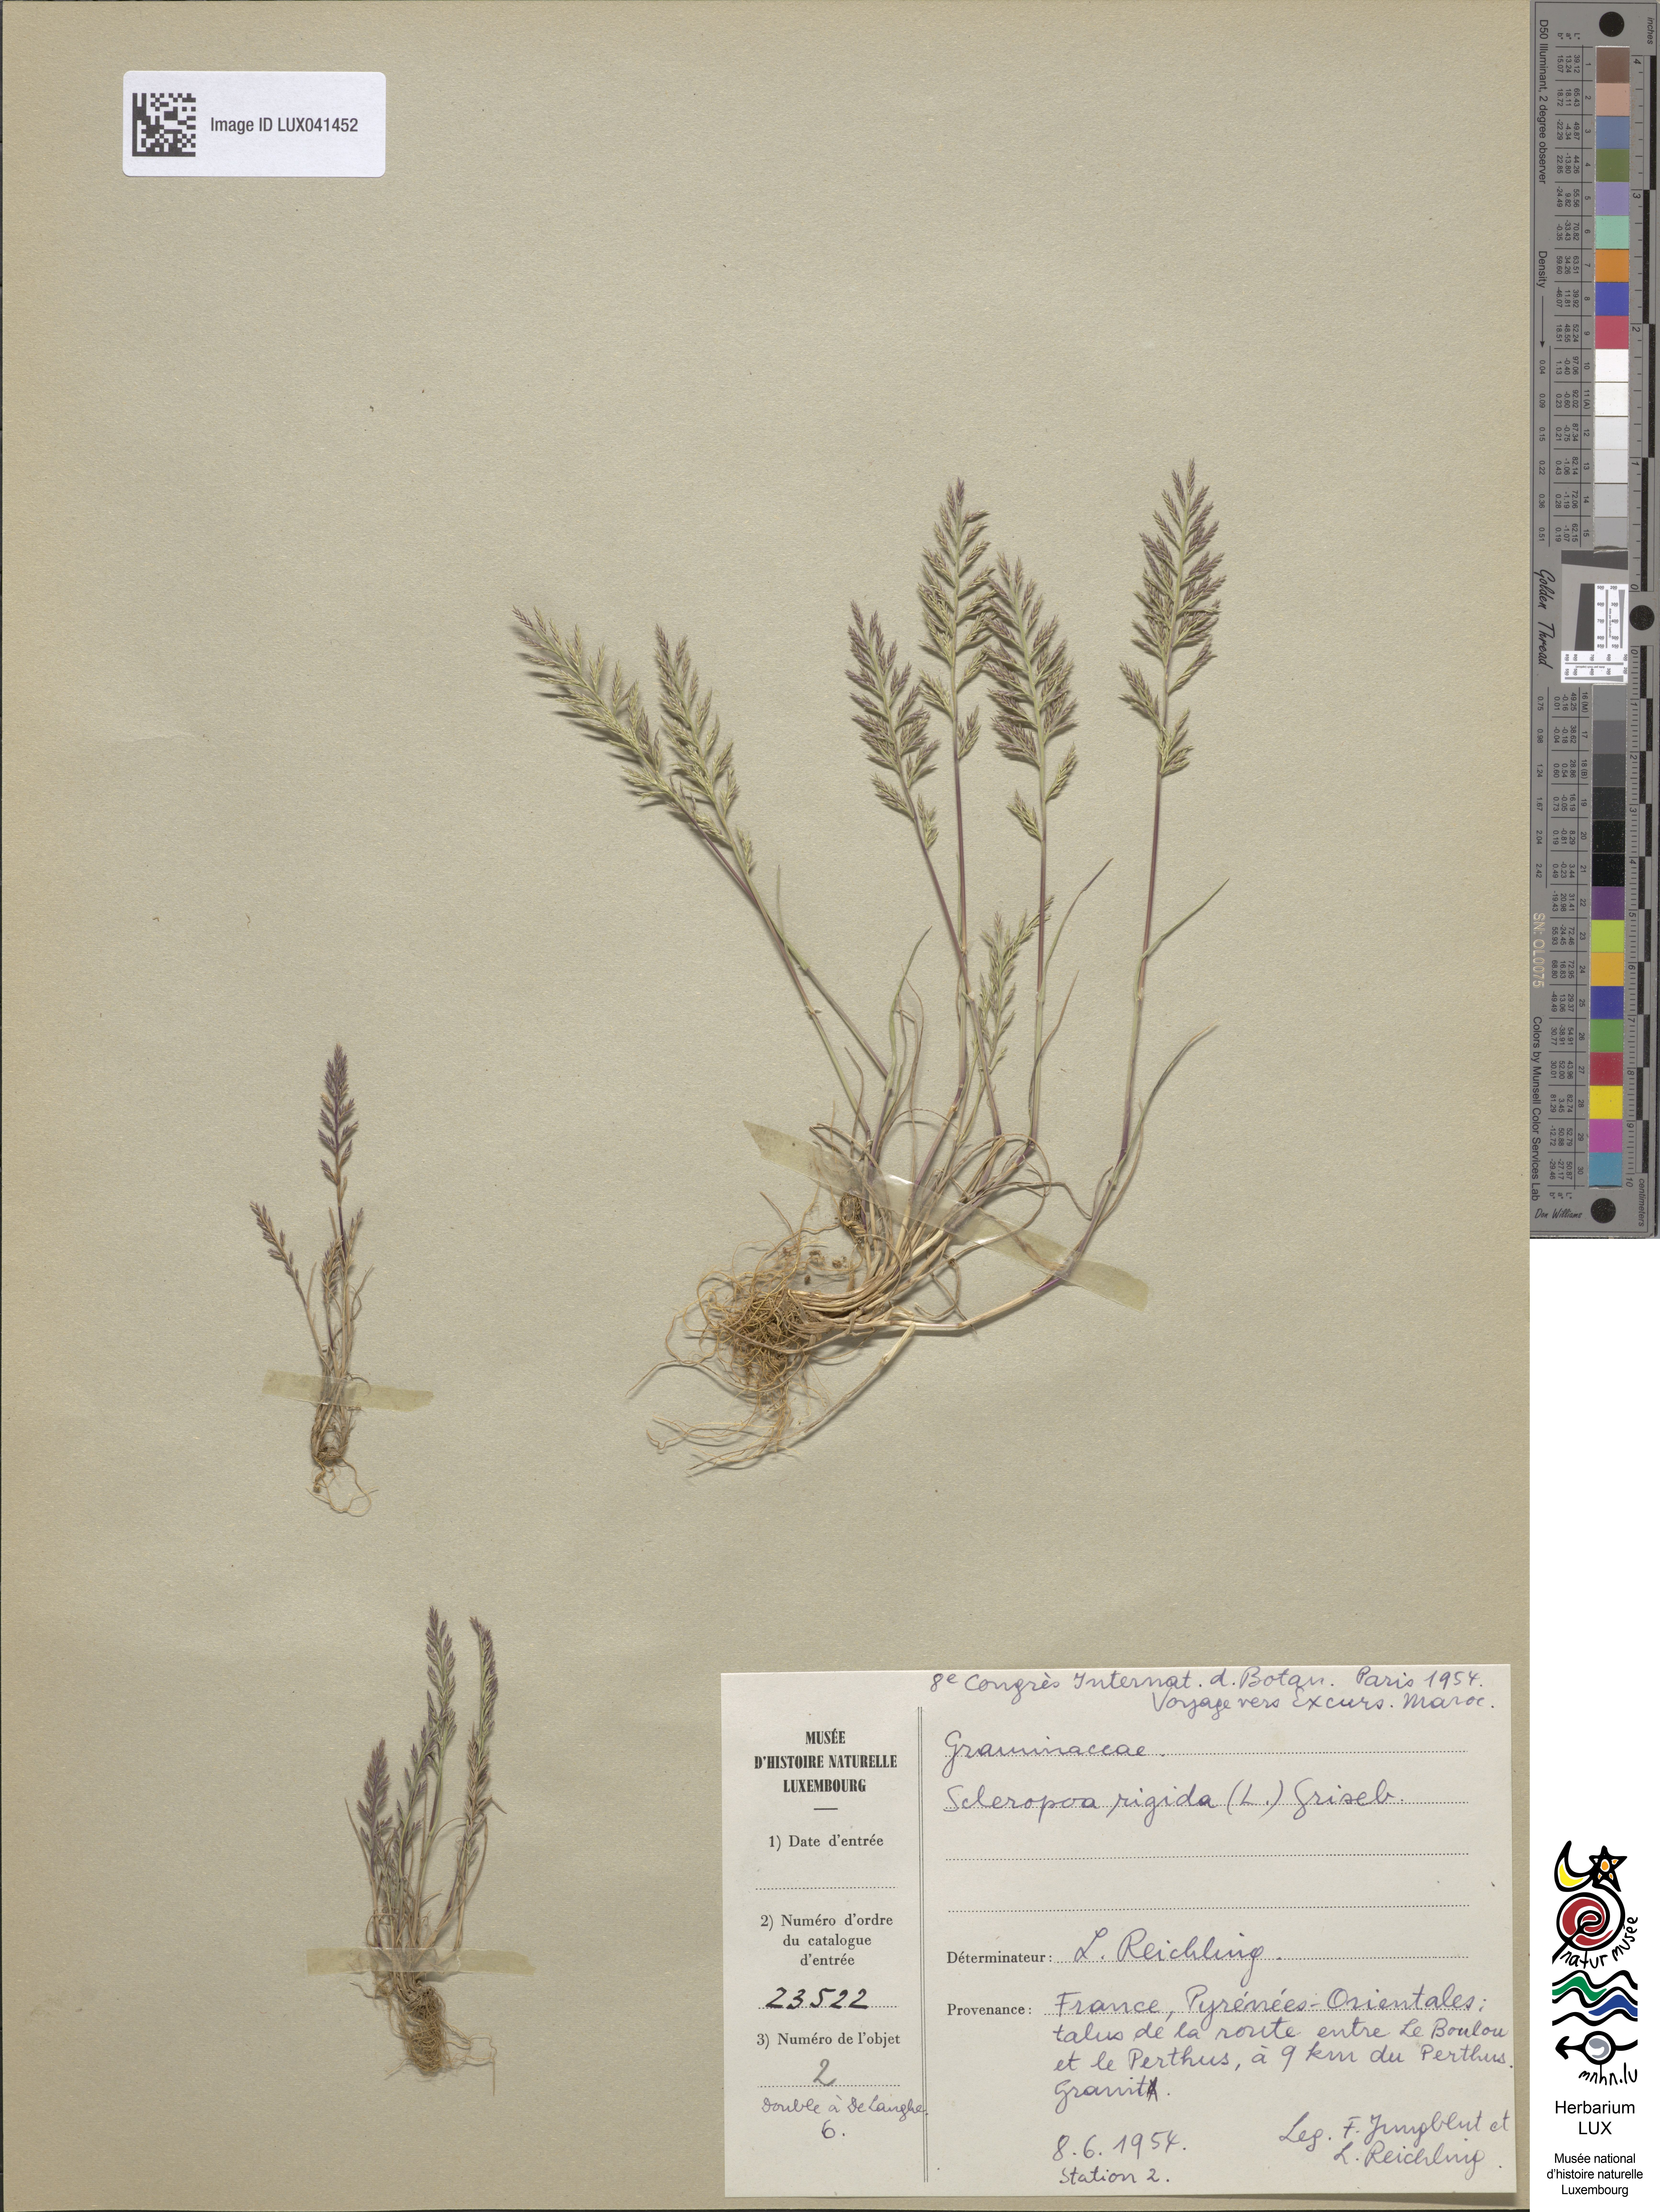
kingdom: Plantae
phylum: Tracheophyta
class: Liliopsida
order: Poales
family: Poaceae
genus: Catapodium
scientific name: Catapodium rigidum
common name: Fern-grass
